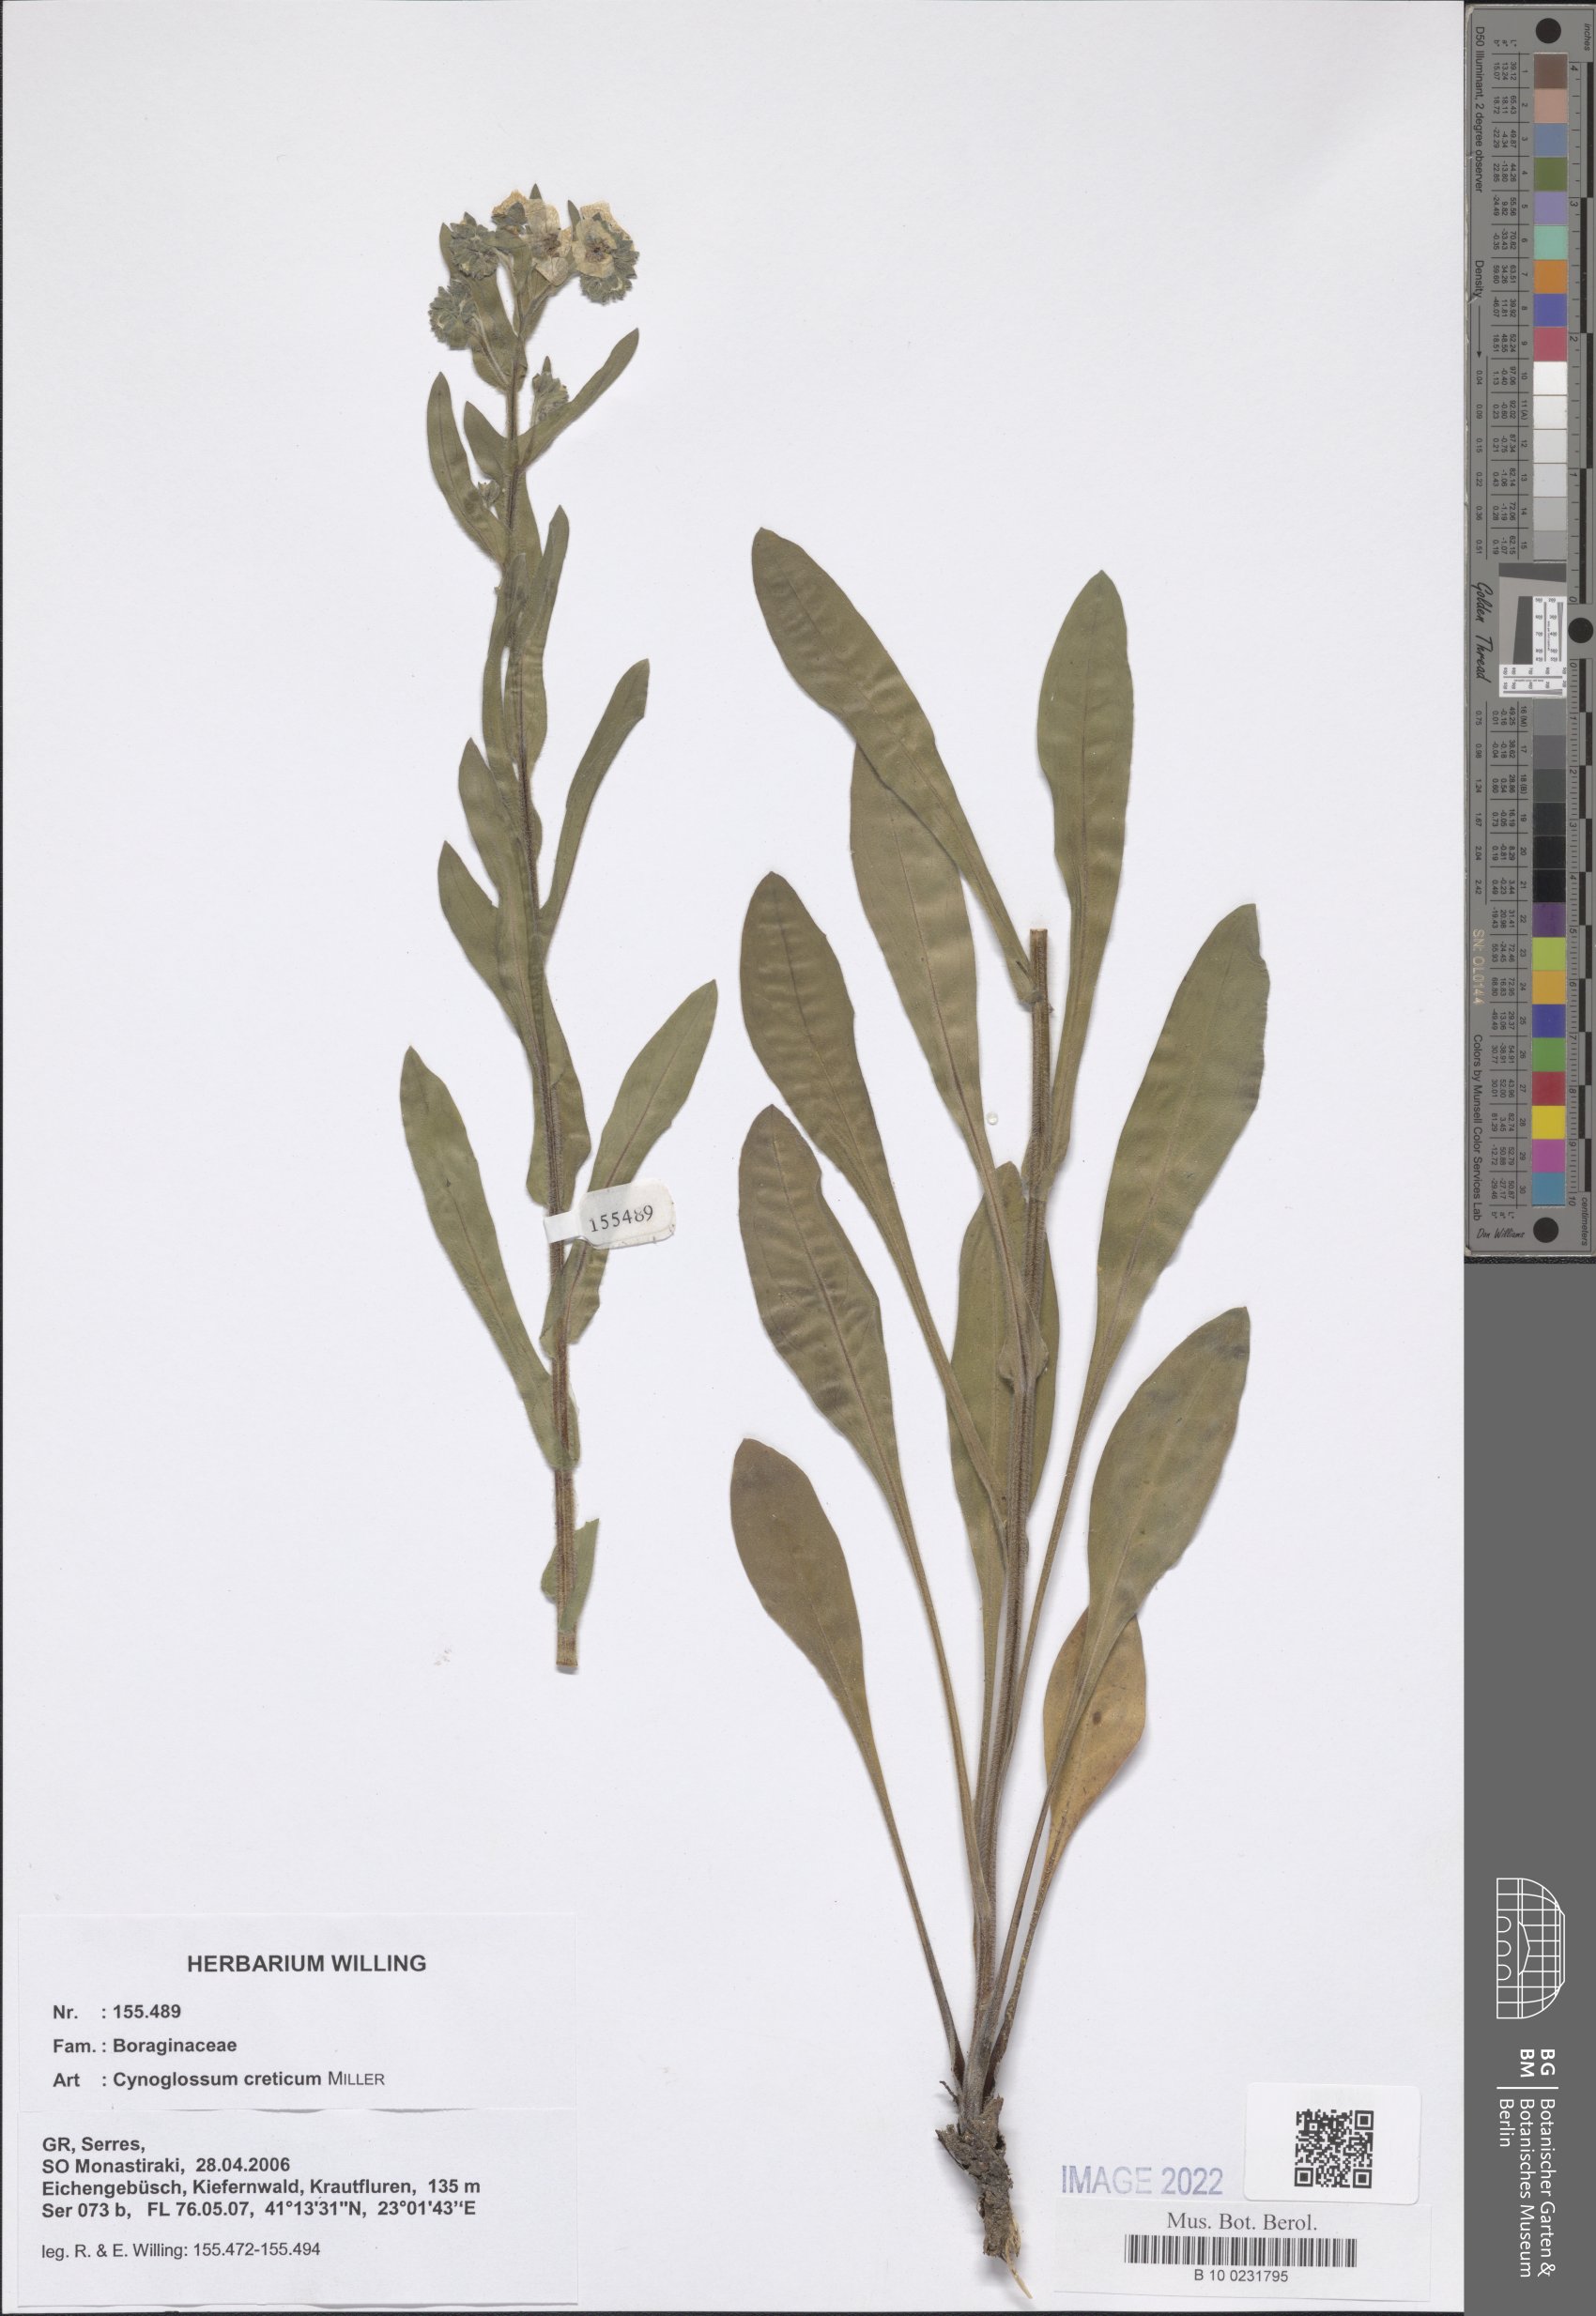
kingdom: Plantae
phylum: Tracheophyta
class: Magnoliopsida
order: Boraginales
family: Boraginaceae
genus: Cynoglossum
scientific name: Cynoglossum creticum
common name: Blue hound's tongue
